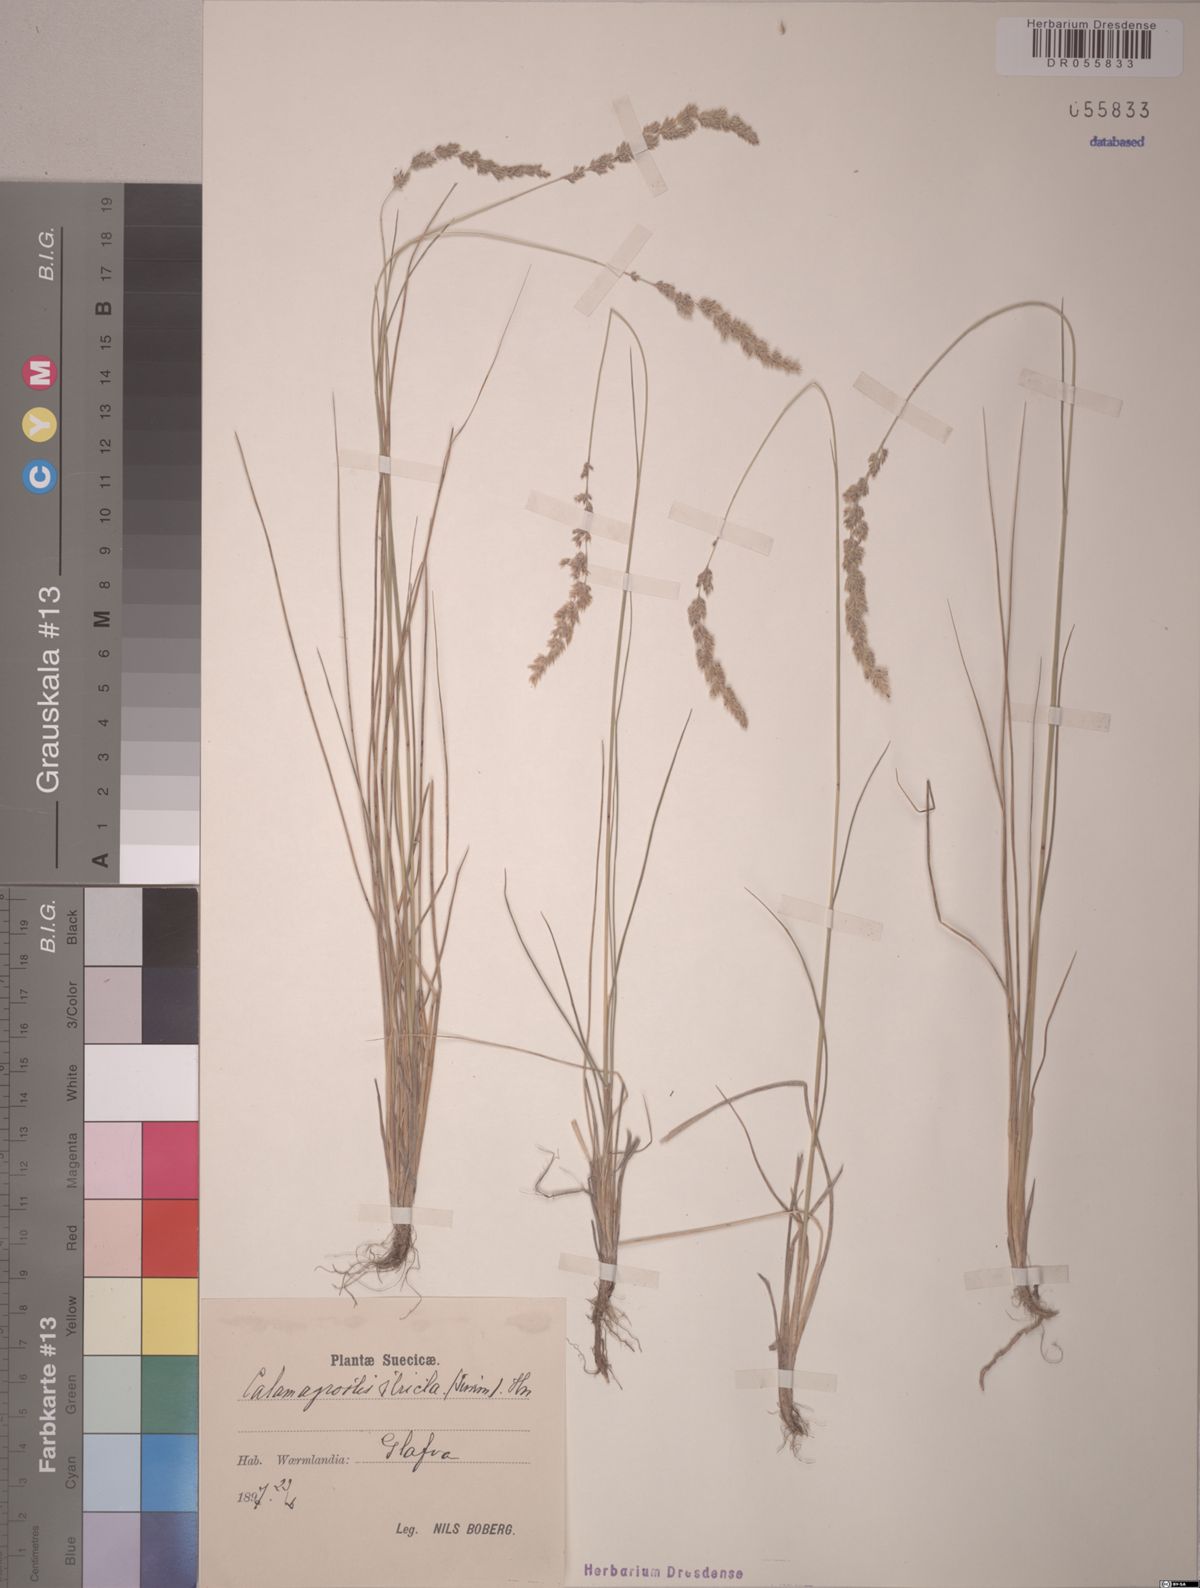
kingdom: Plantae
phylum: Tracheophyta
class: Liliopsida
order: Poales
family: Poaceae
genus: Calamagrostis
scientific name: Calamagrostis stricta
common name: Narrow small-reed
